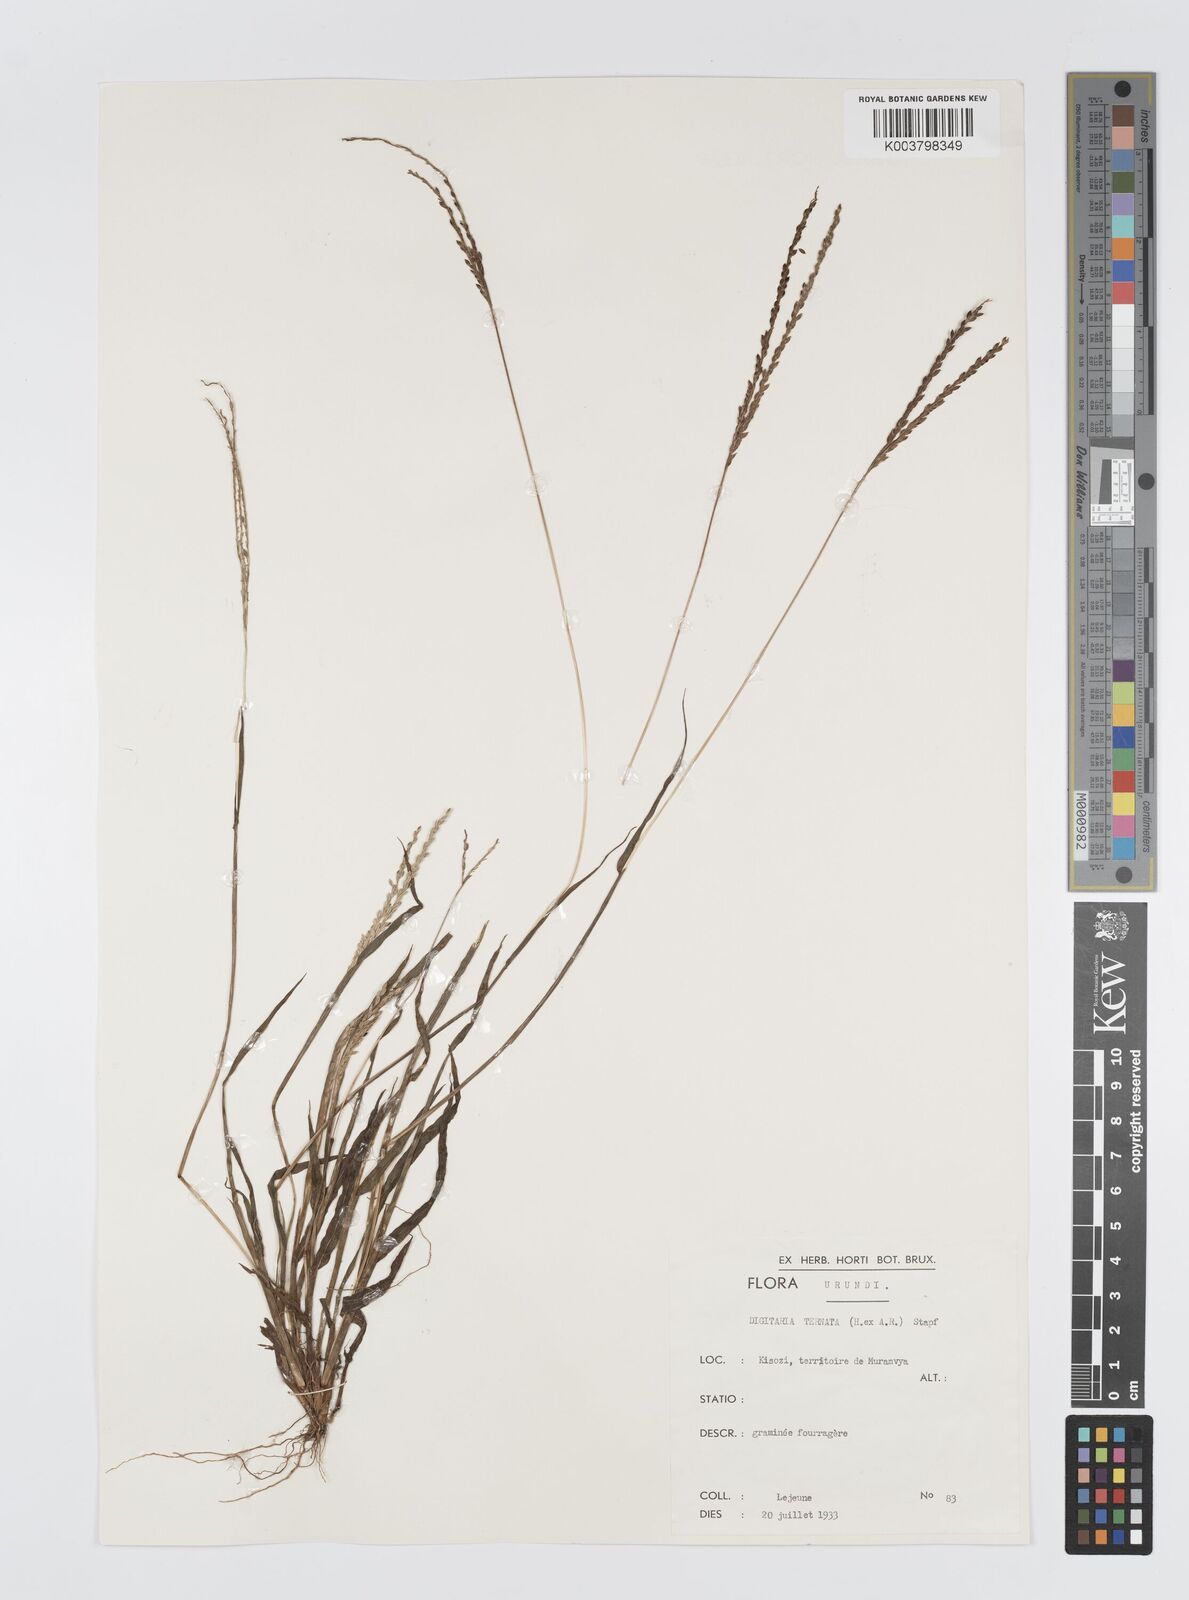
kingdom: Plantae
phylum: Tracheophyta
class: Liliopsida
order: Poales
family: Poaceae
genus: Digitaria
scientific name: Digitaria ternata
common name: Blackseed crabgrass
